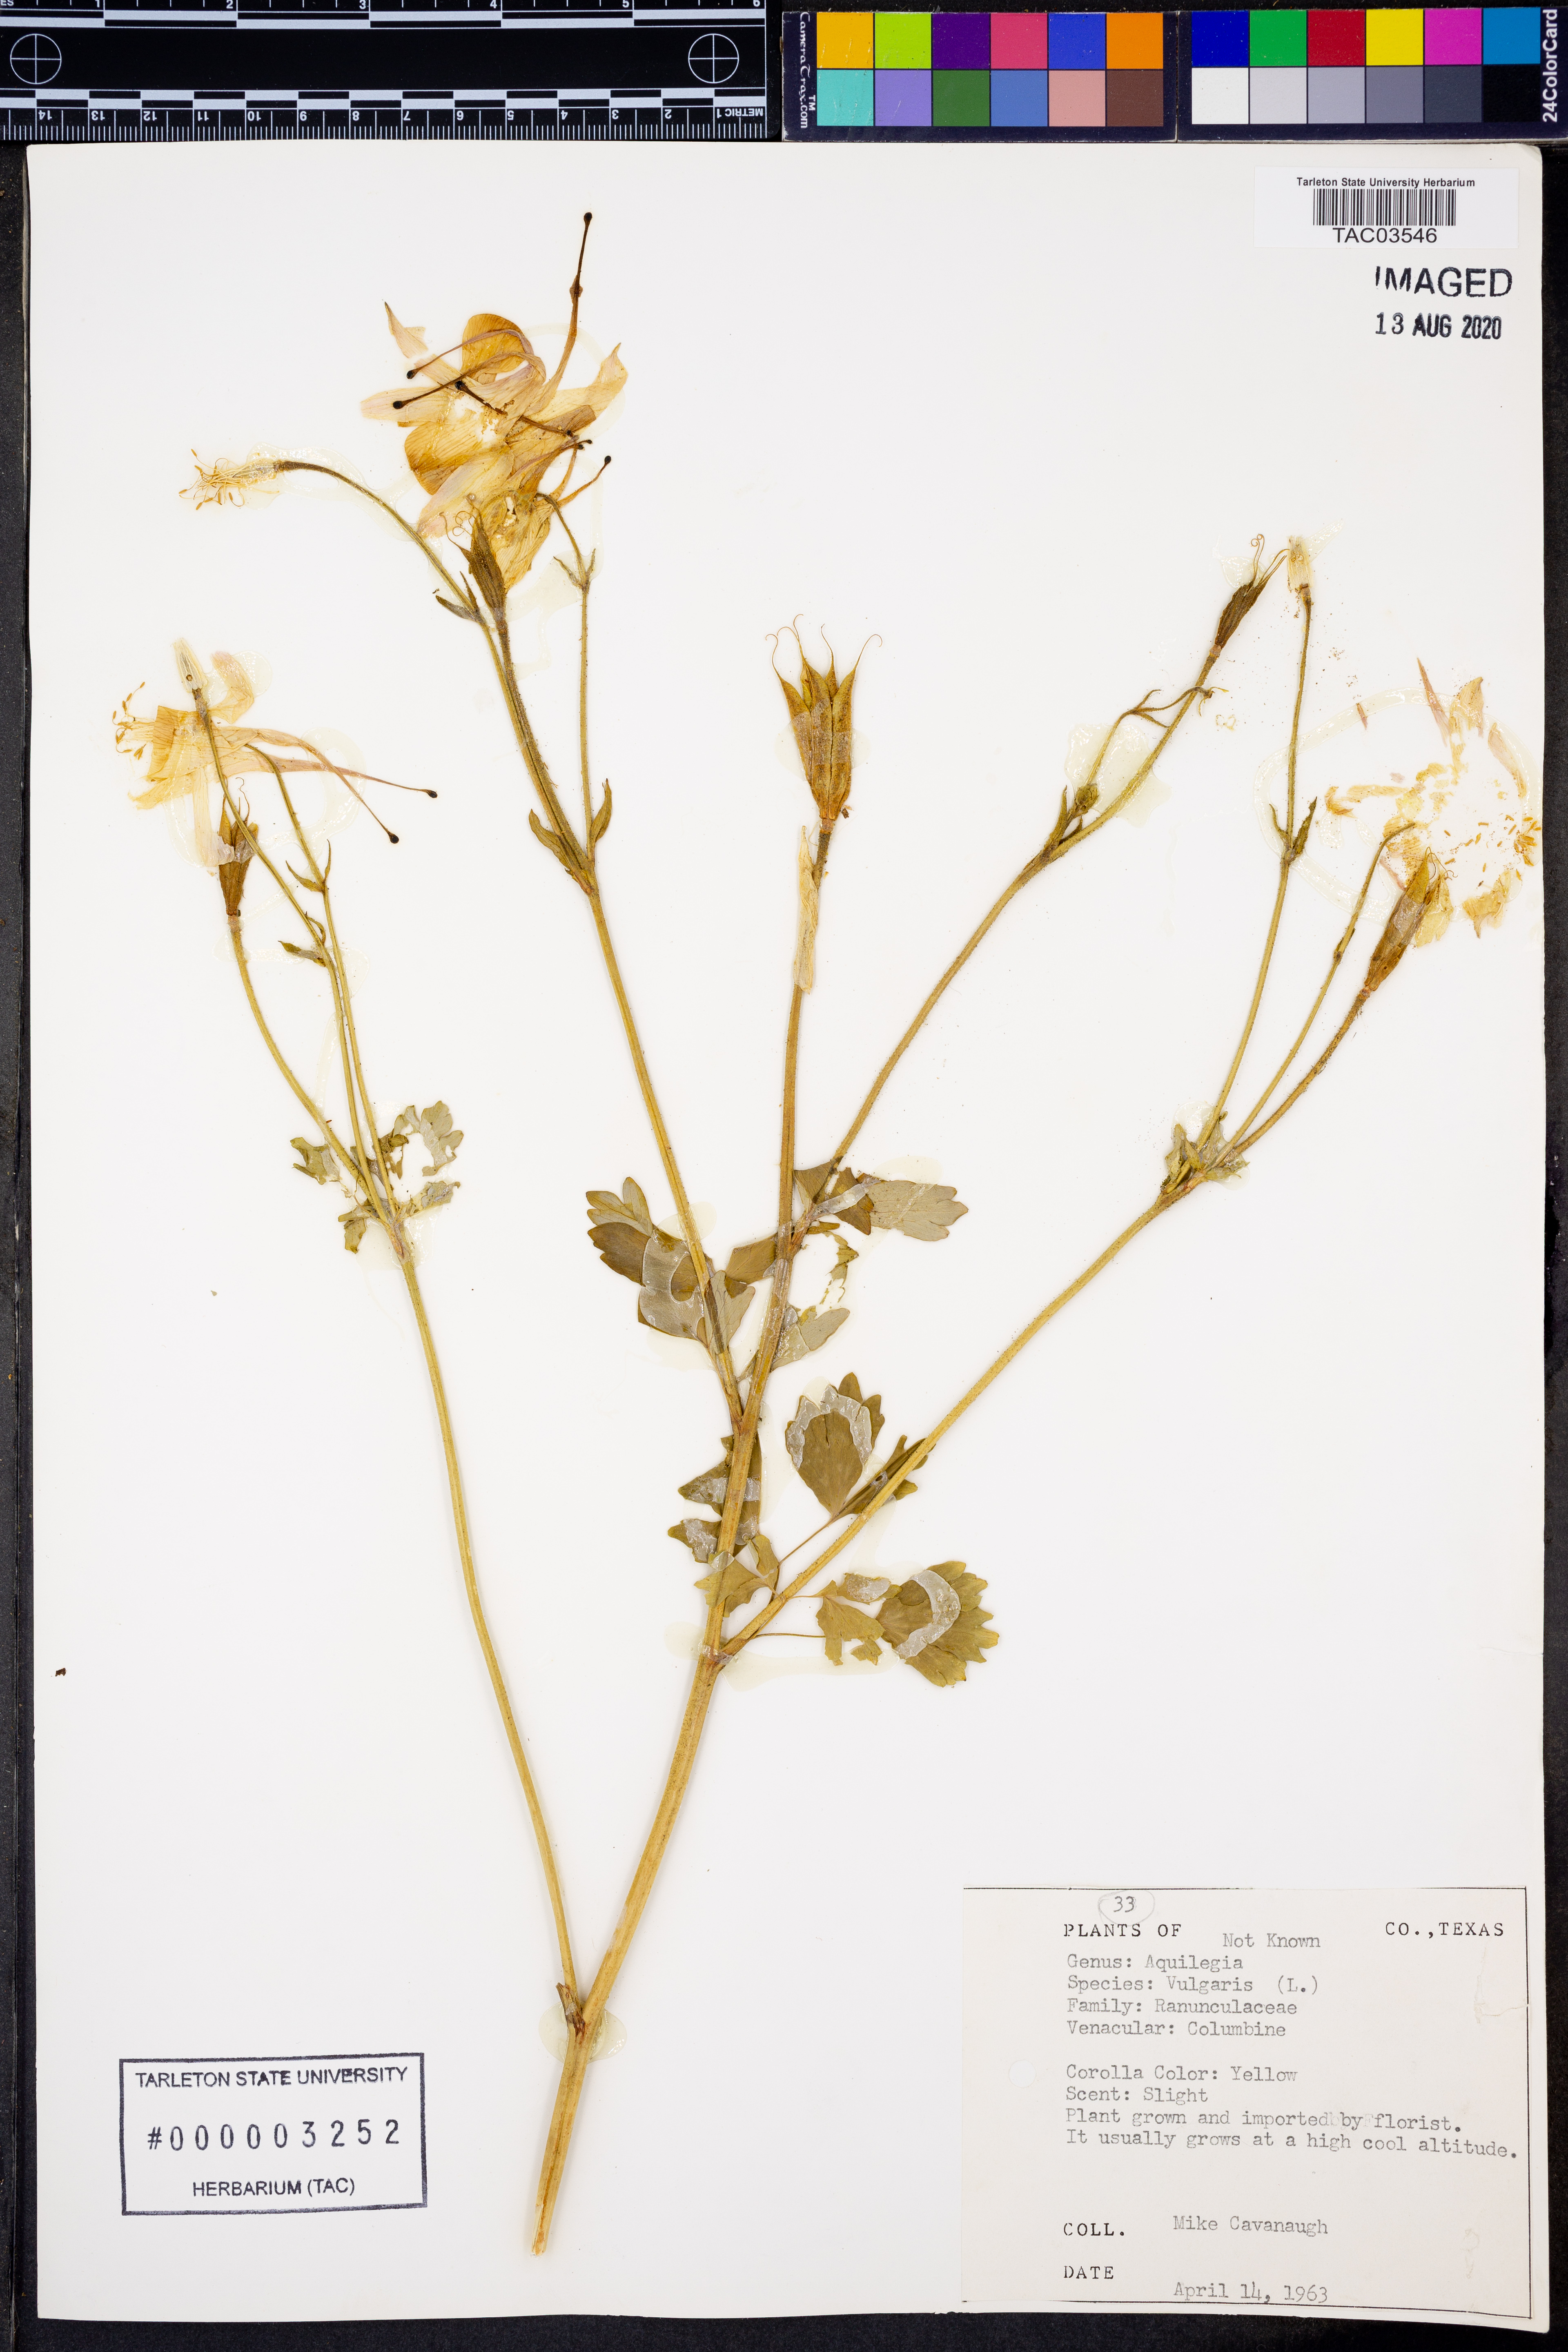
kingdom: Plantae
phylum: Tracheophyta
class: Magnoliopsida
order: Ranunculales
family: Ranunculaceae
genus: Aquilegia
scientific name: Aquilegia vulgaris
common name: Columbine
